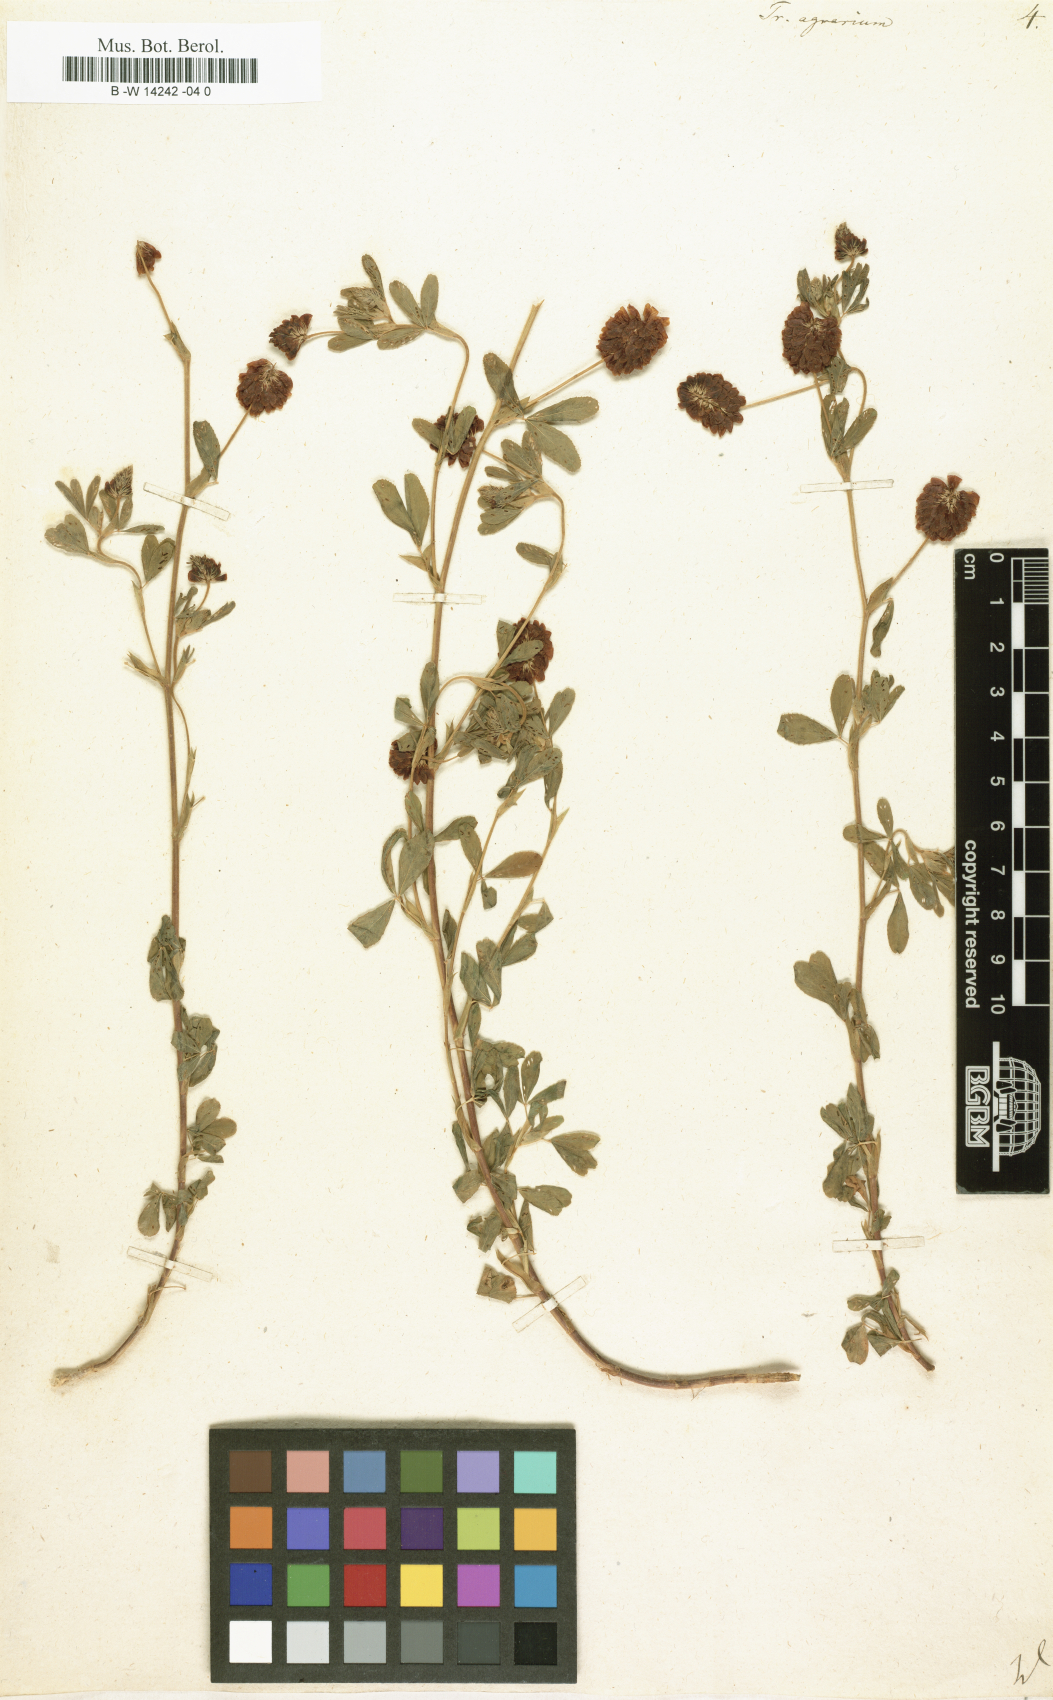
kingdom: Plantae
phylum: Tracheophyta
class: Magnoliopsida
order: Fabales
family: Fabaceae
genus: Trifolium
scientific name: Trifolium aureum
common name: Golden clover
